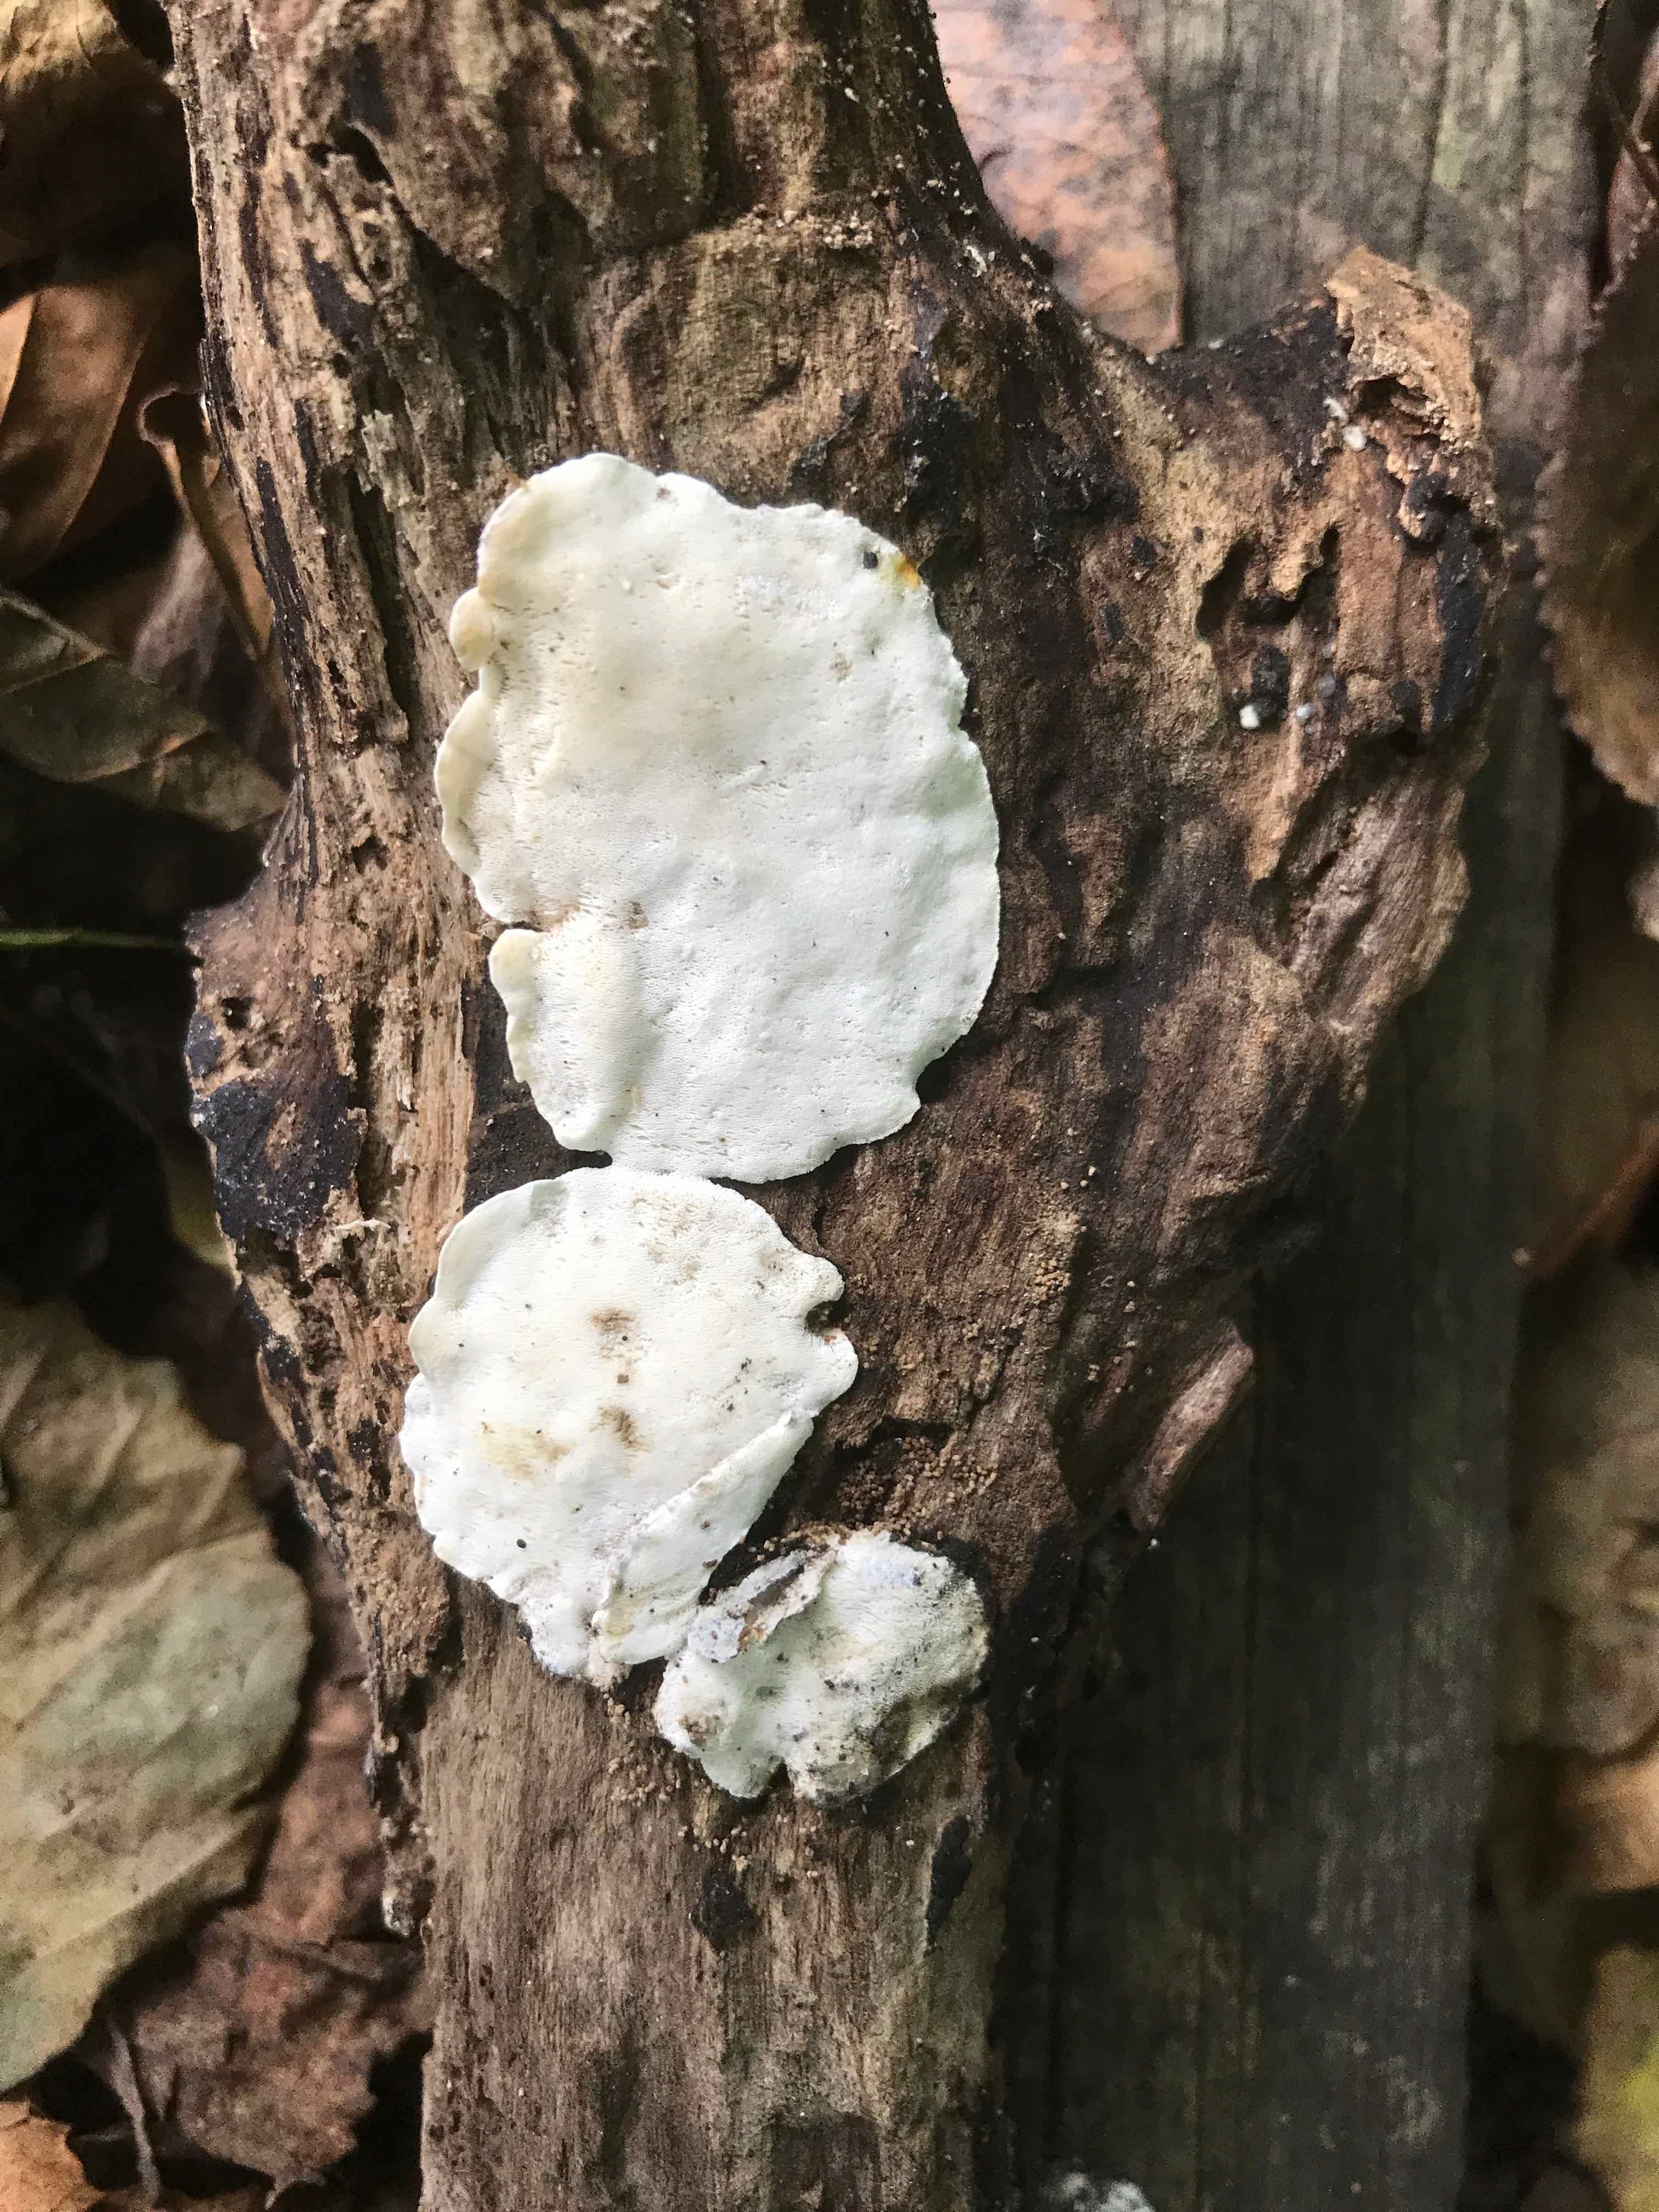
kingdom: Fungi
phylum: Basidiomycota
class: Agaricomycetes
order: Polyporales
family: Incrustoporiaceae
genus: Skeletocutis
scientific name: Skeletocutis nemoralis
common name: stor krystalporesvamp
